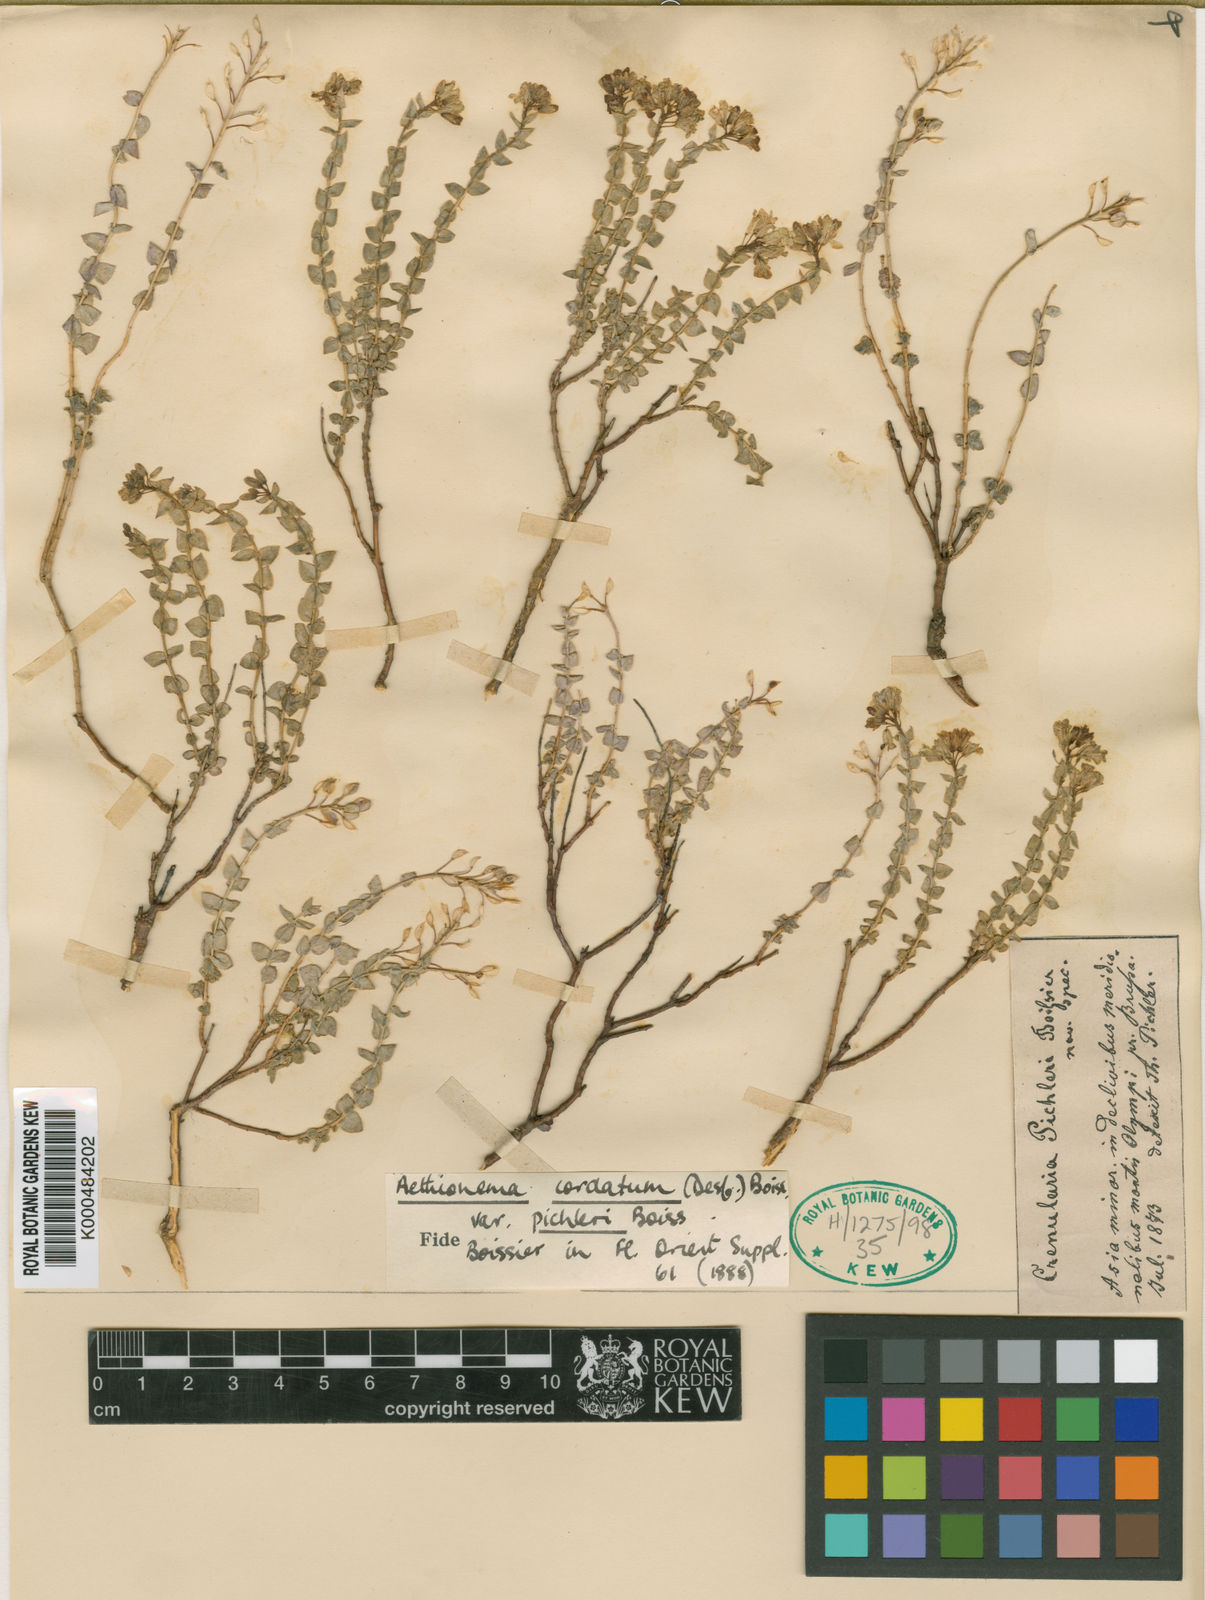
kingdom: Plantae
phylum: Tracheophyta
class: Magnoliopsida
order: Brassicales
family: Brassicaceae
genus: Aethionema
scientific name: Aethionema cordatum
